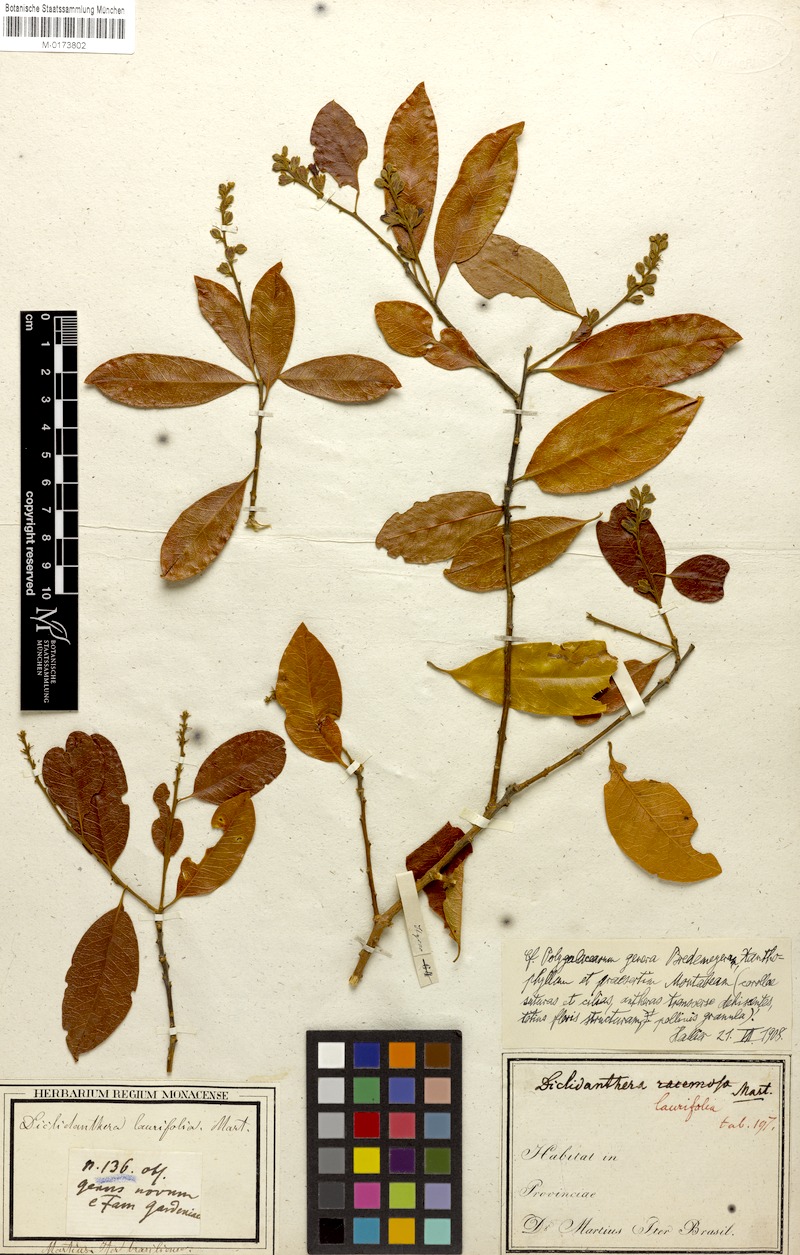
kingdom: Plantae
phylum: Tracheophyta
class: Magnoliopsida
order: Fabales
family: Polygalaceae
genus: Diclidanthera
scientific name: Diclidanthera laurifolia
